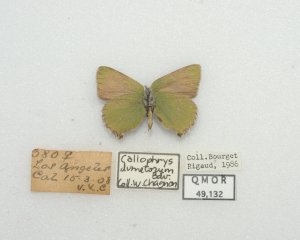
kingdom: Animalia
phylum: Arthropoda
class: Insecta
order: Lepidoptera
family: Lycaenidae
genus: Callophrys
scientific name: Callophrys dumetorum
